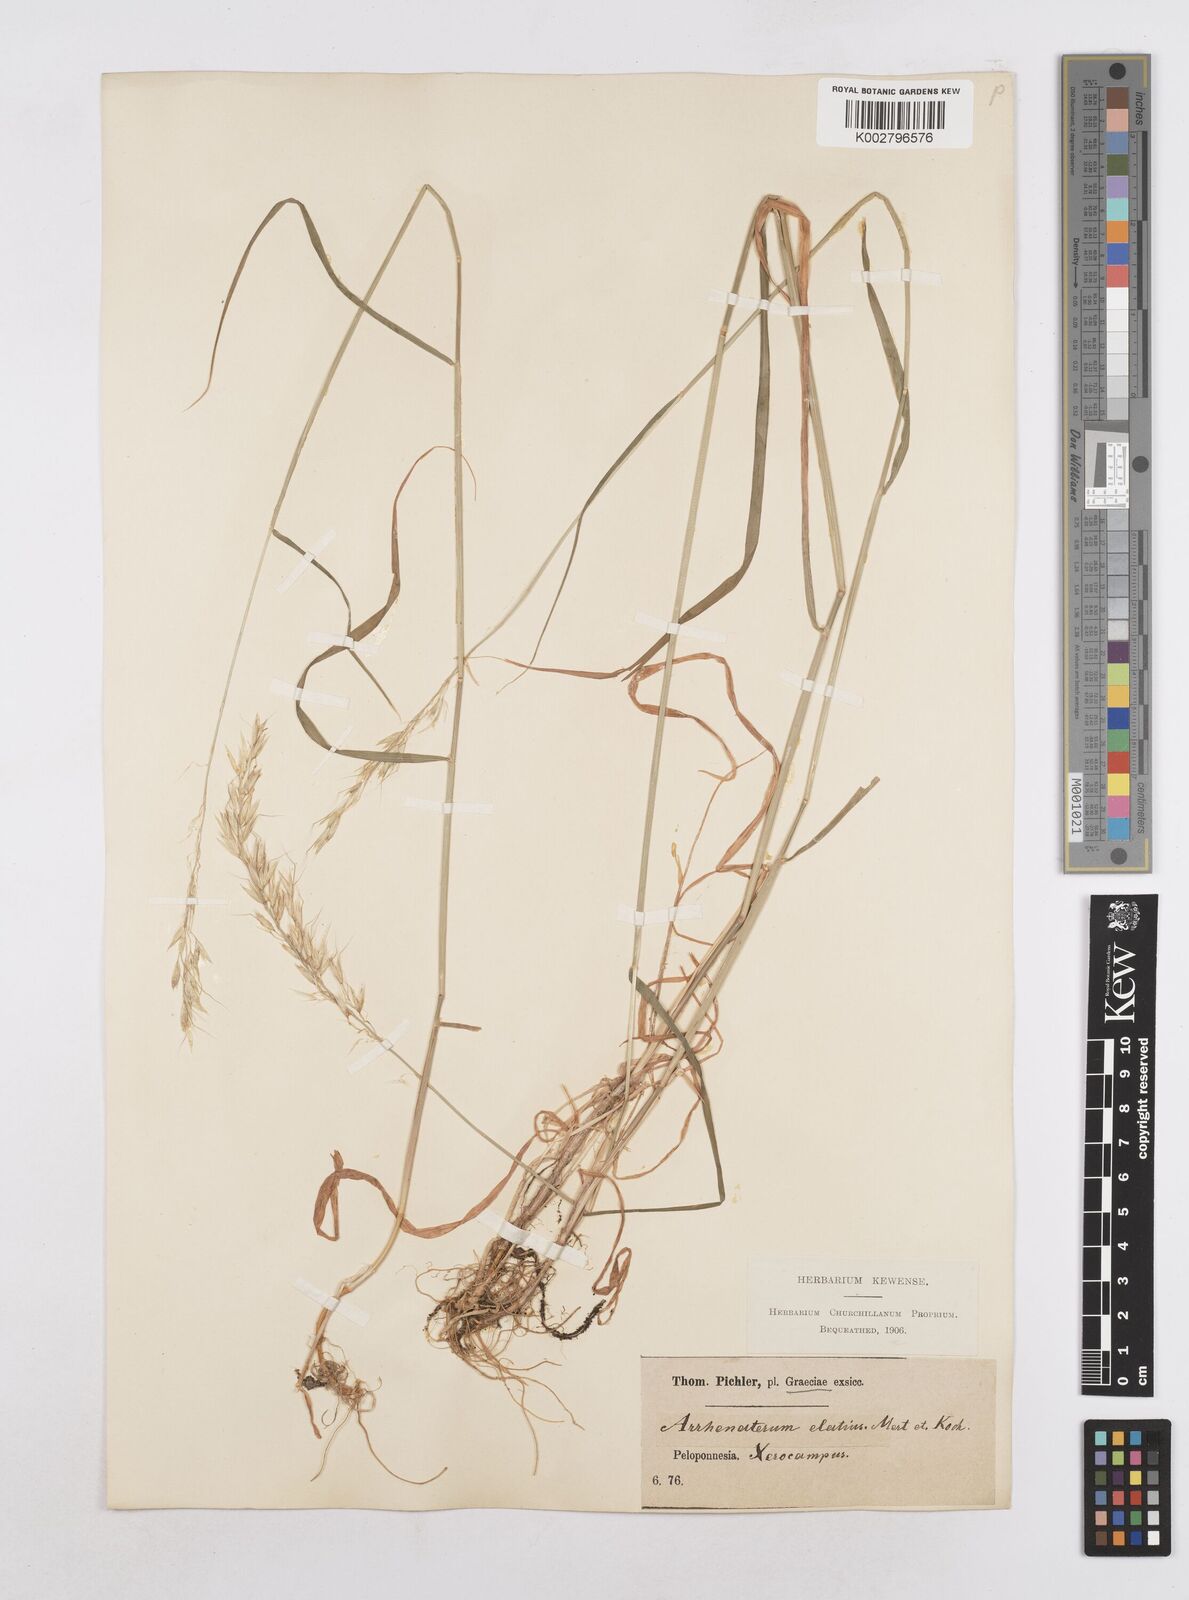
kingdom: Plantae
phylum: Tracheophyta
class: Liliopsida
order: Poales
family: Poaceae
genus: Arrhenatherum
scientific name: Arrhenatherum elatius
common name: Tall oatgrass
